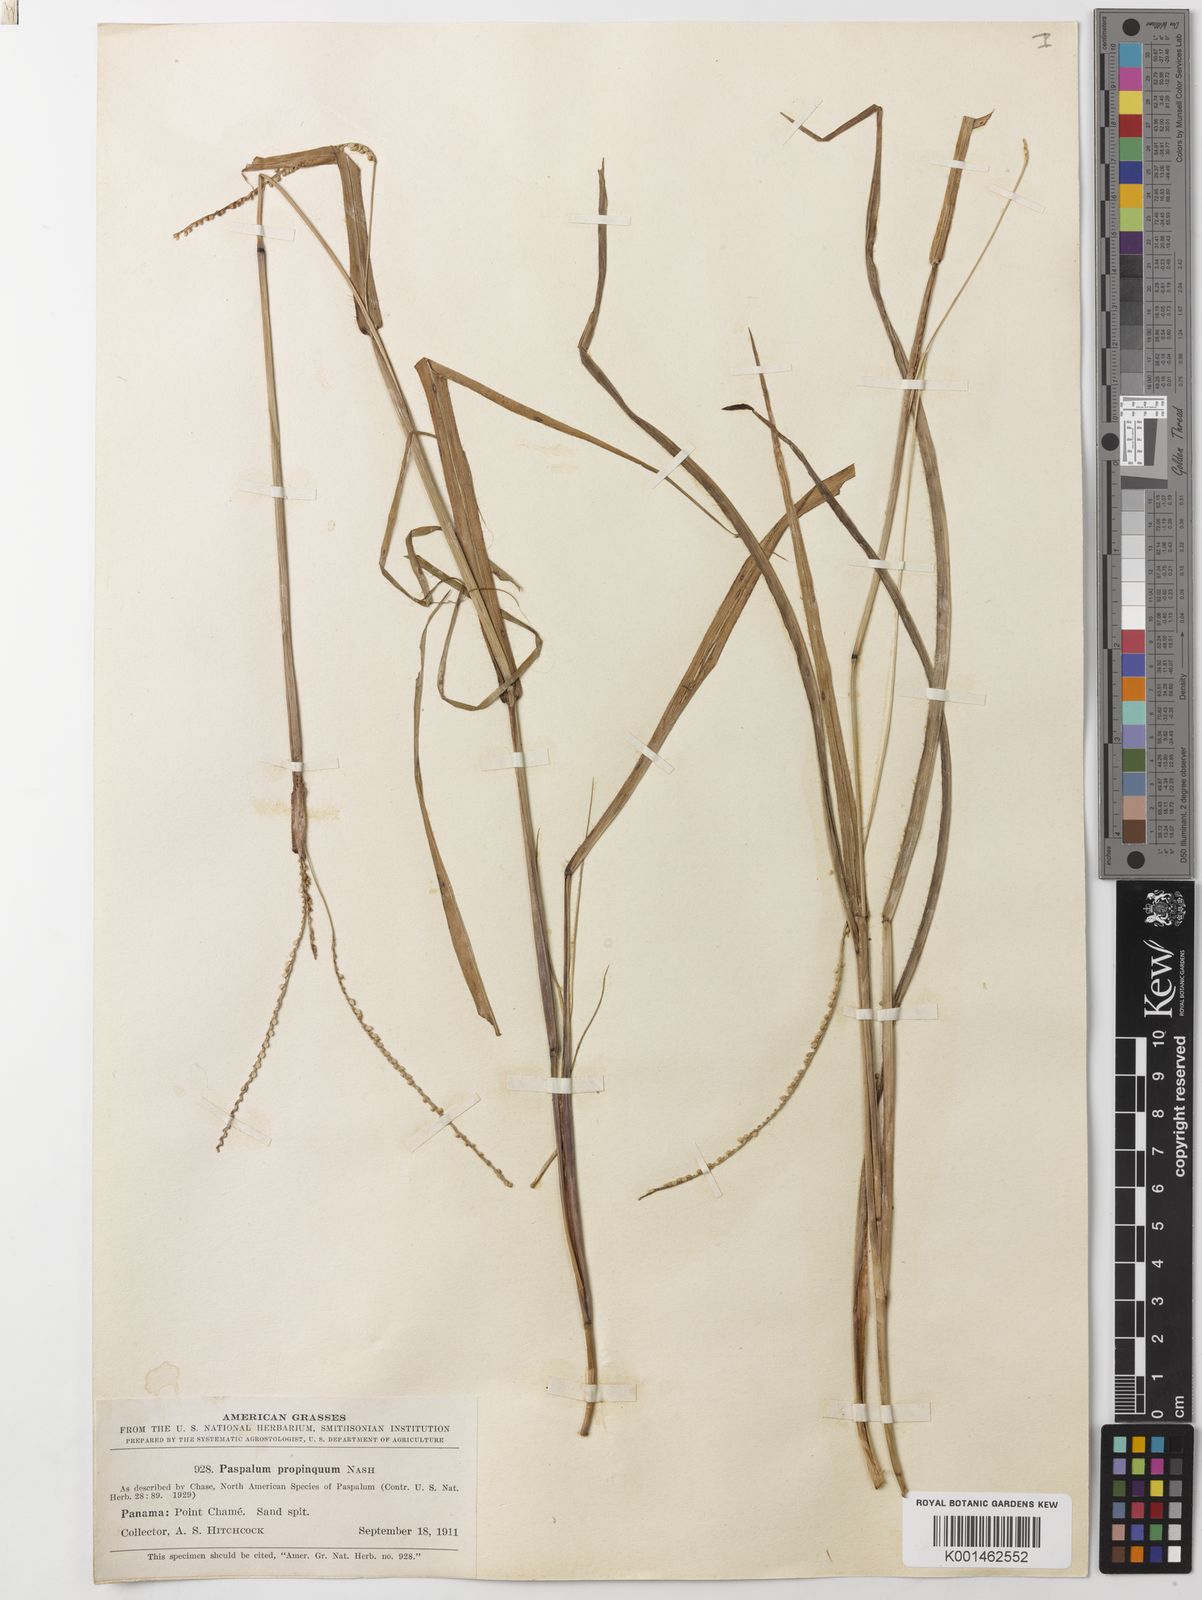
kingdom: Plantae
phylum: Tracheophyta
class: Liliopsida
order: Poales
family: Poaceae
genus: Paspalum
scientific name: Paspalum setaceum
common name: Slender paspalum
